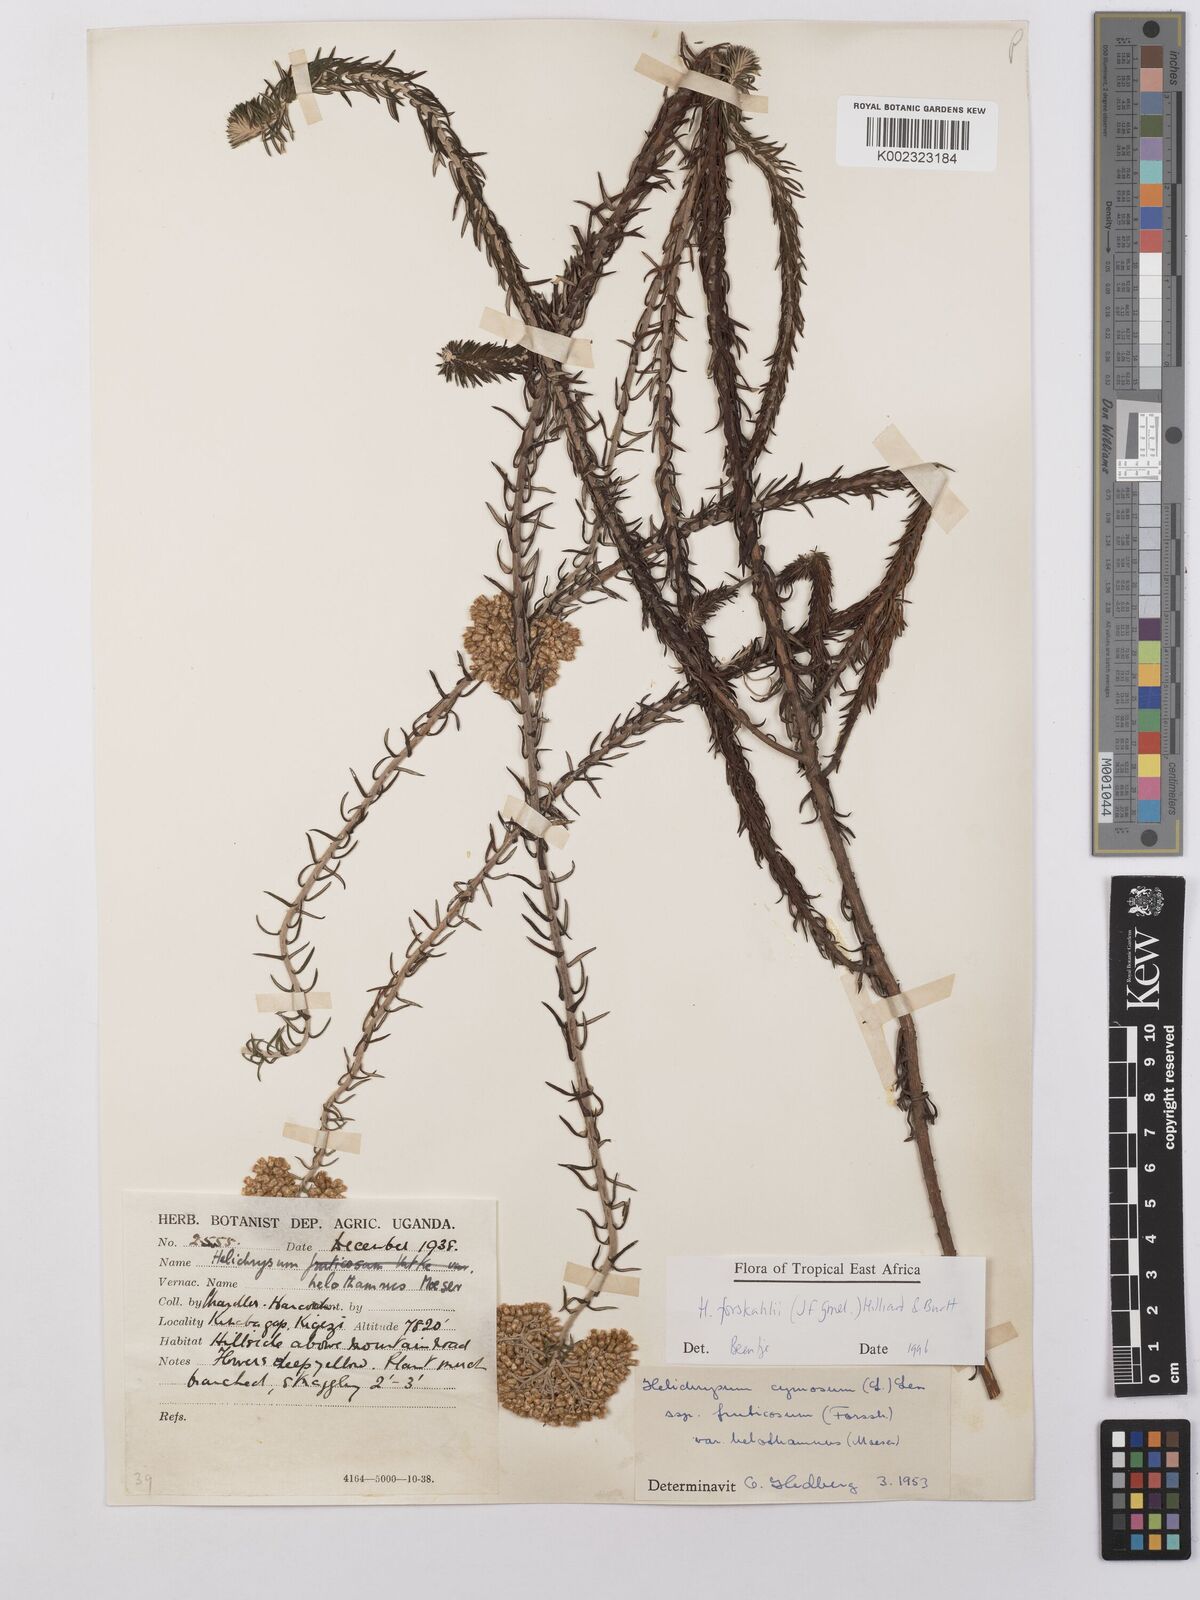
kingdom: Plantae
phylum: Tracheophyta
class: Magnoliopsida
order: Asterales
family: Asteraceae
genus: Helichrysum
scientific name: Helichrysum forskahlii
